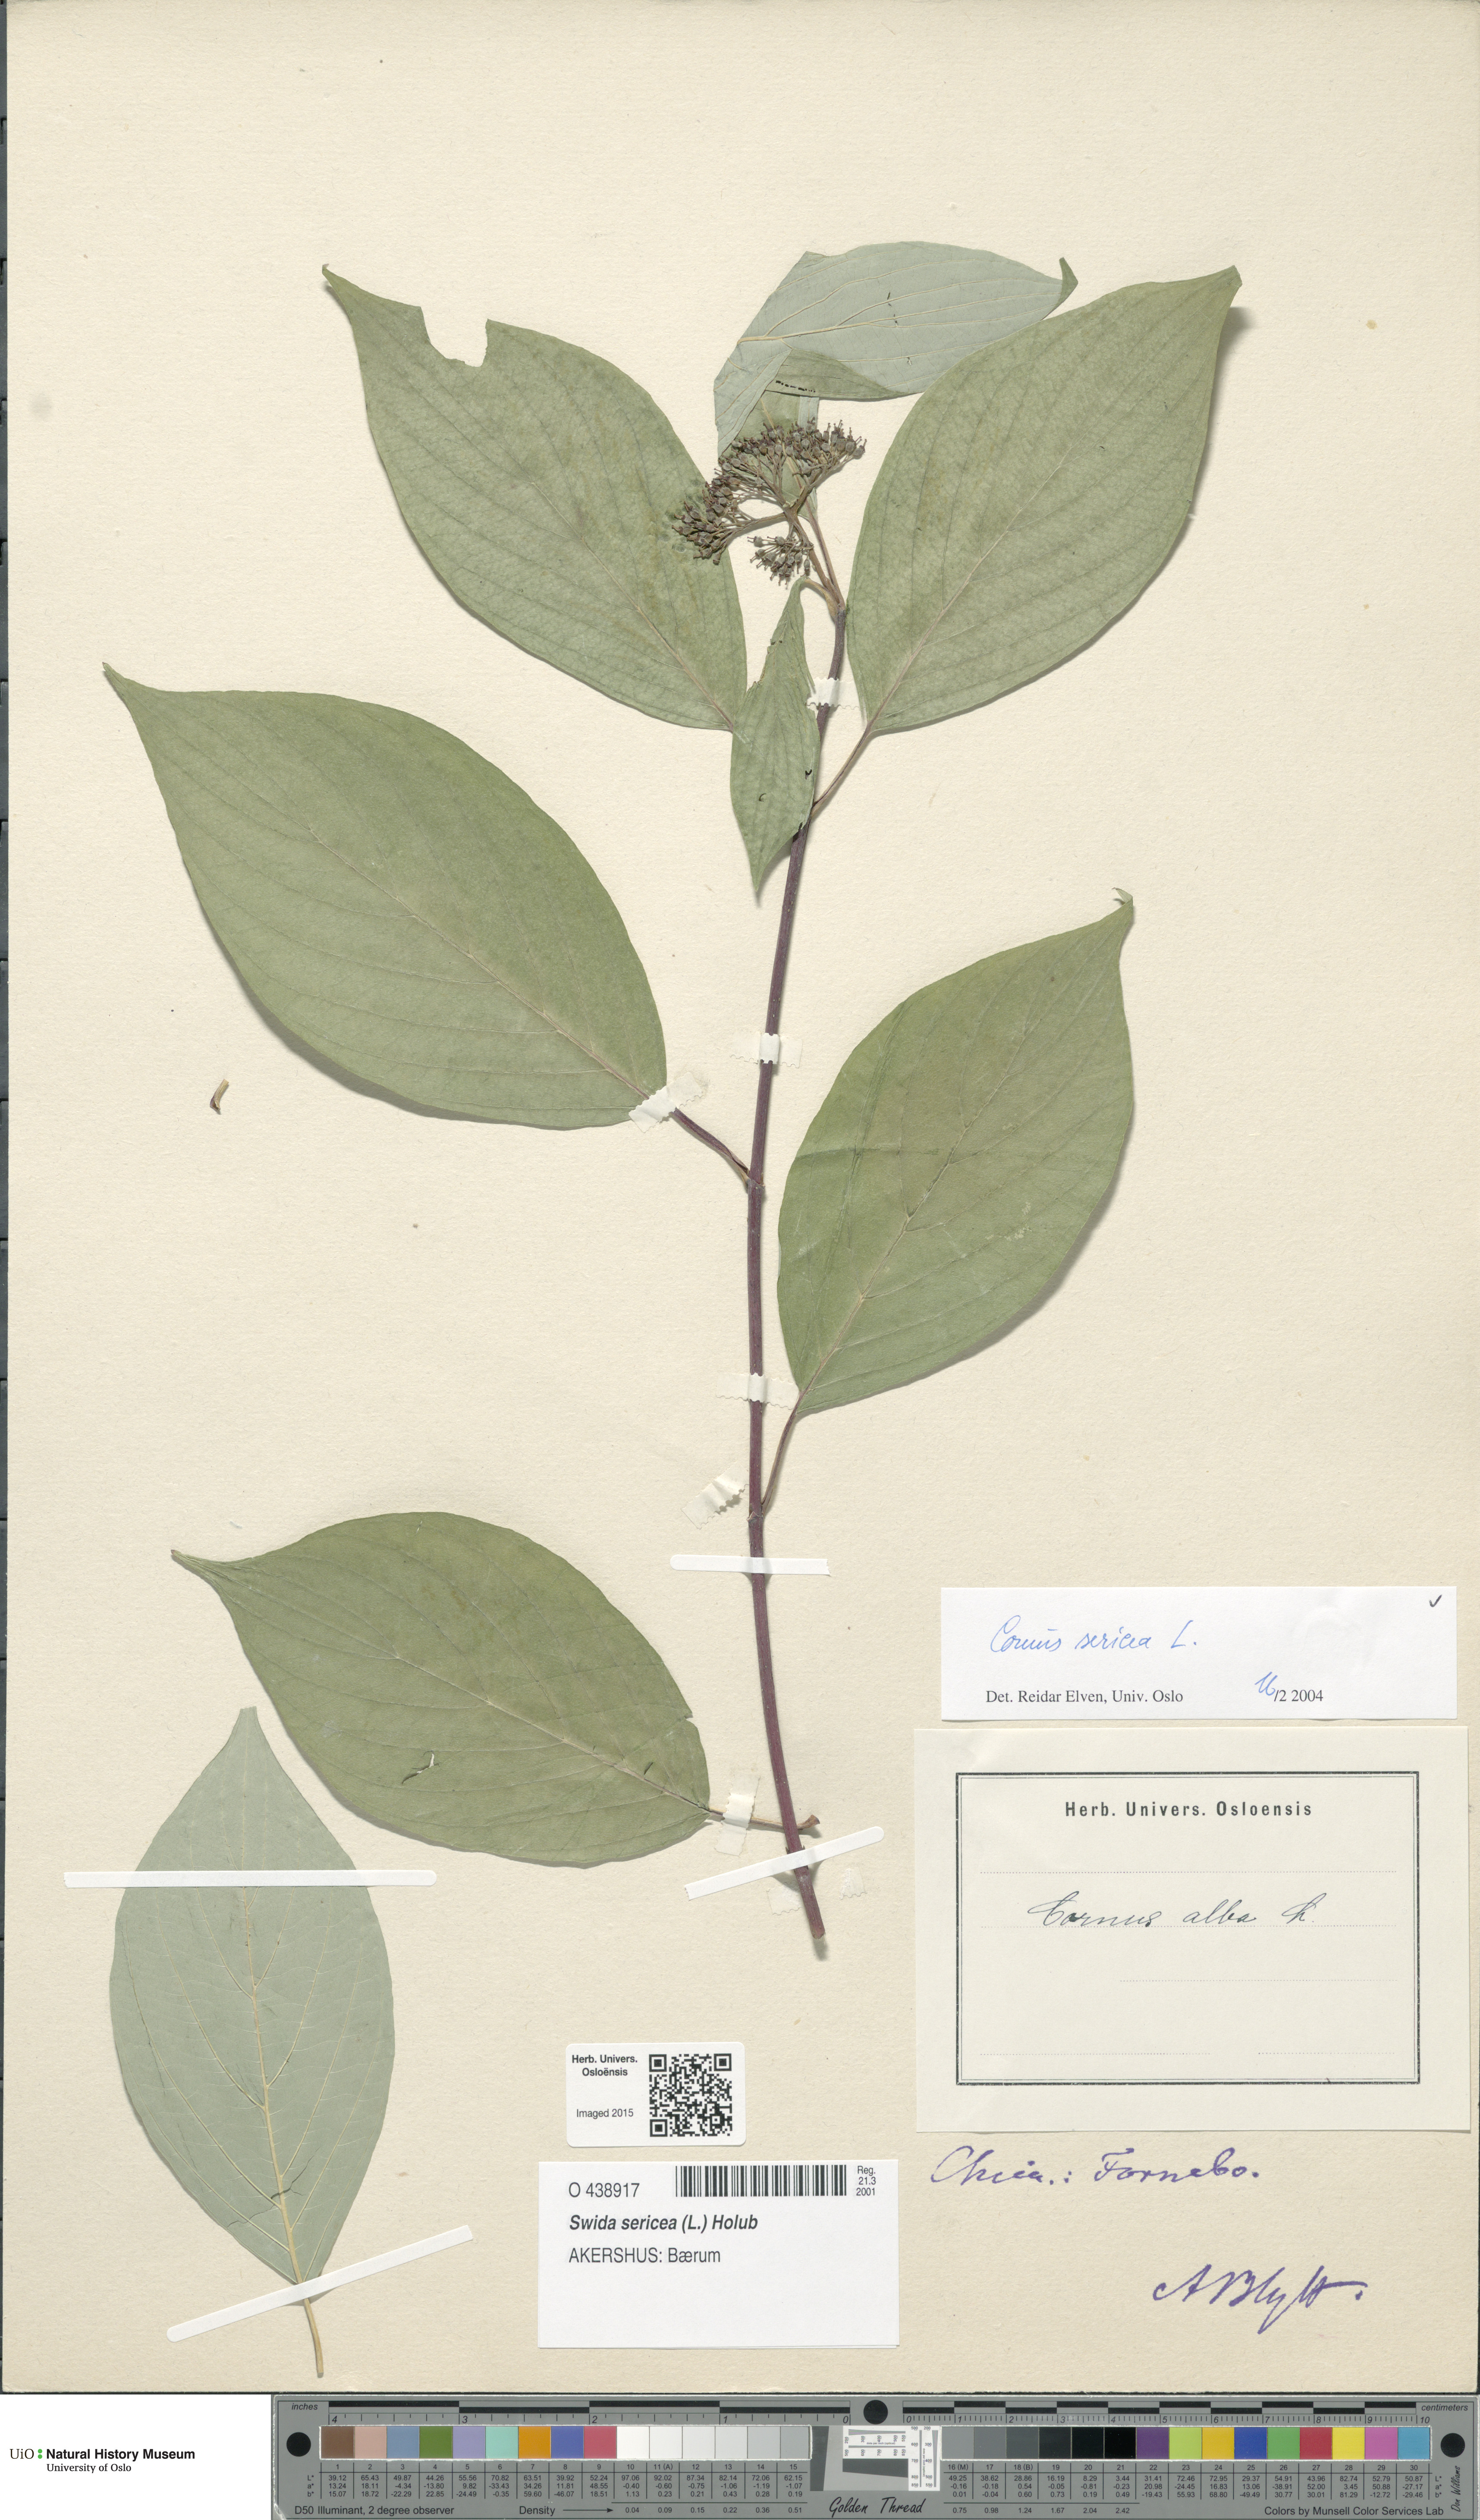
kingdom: Plantae
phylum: Tracheophyta
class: Magnoliopsida
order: Cornales
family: Cornaceae
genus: Cornus
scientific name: Cornus sericea
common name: Red-osier dogwood
